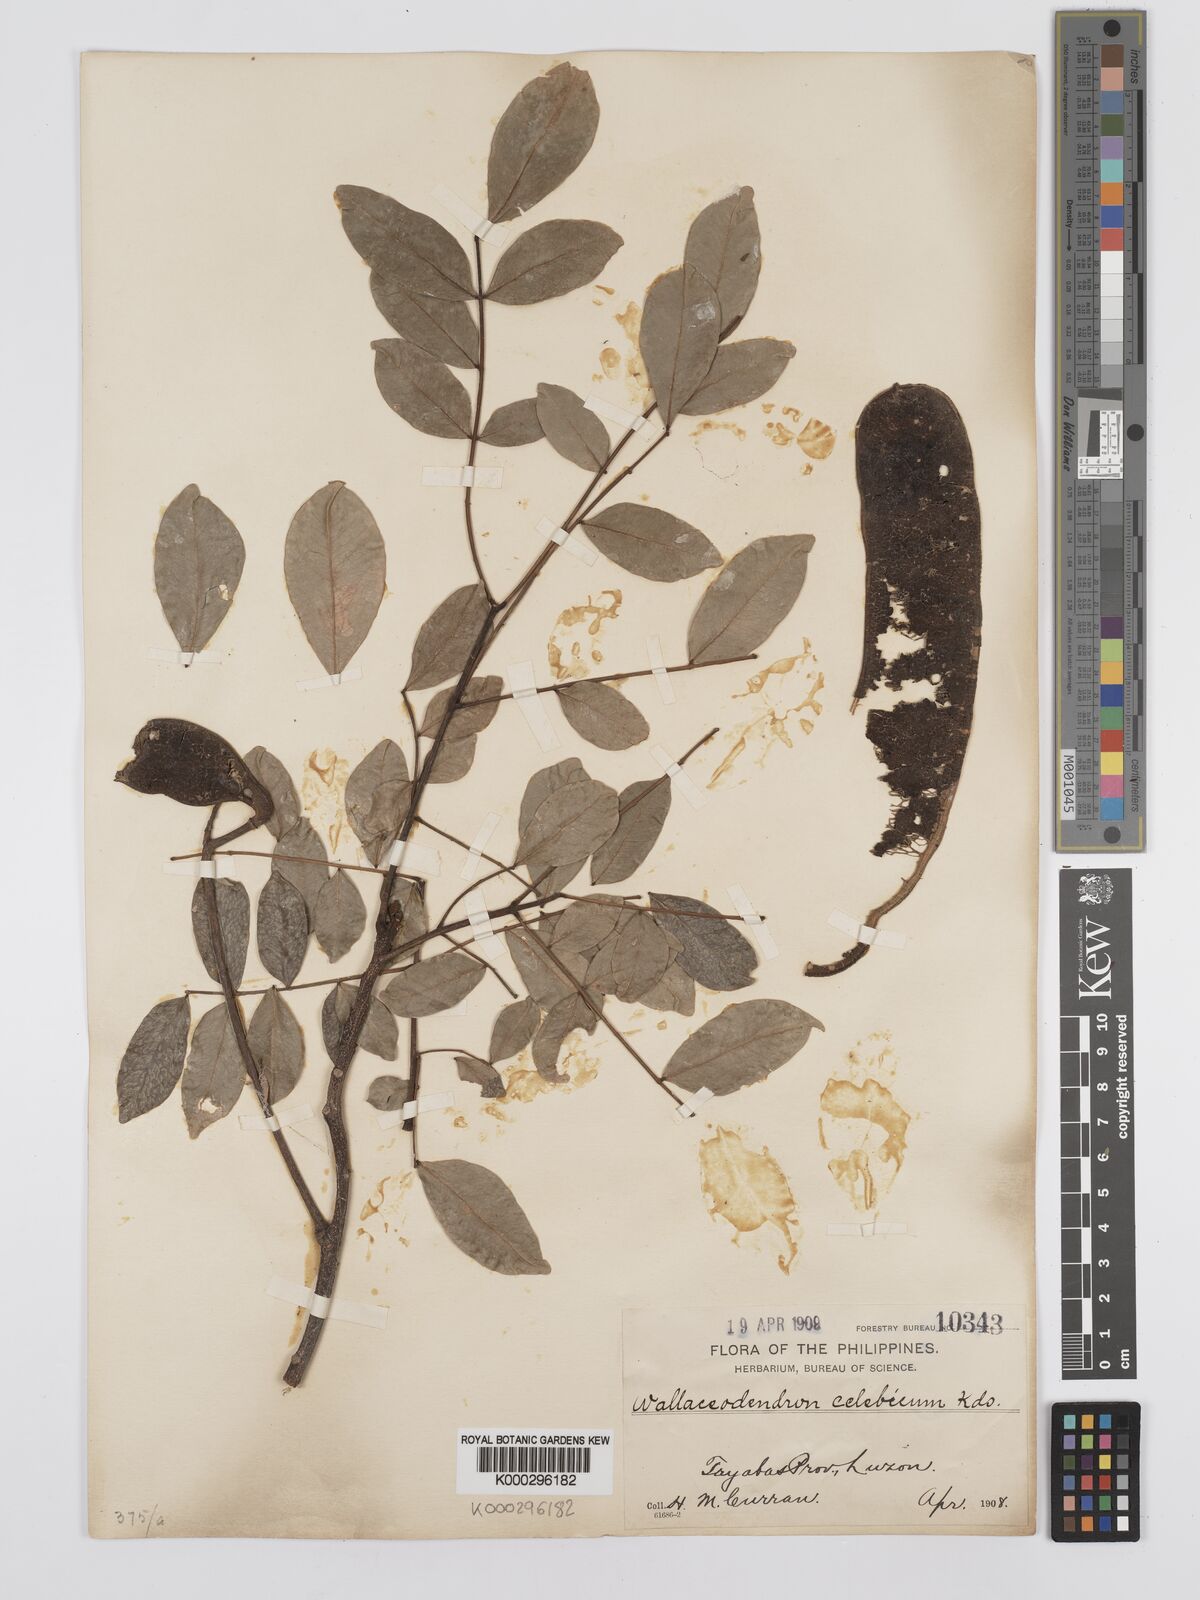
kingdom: Plantae
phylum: Tracheophyta
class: Magnoliopsida
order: Fabales
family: Fabaceae
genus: Wallaceodendron
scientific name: Wallaceodendron celebicum
